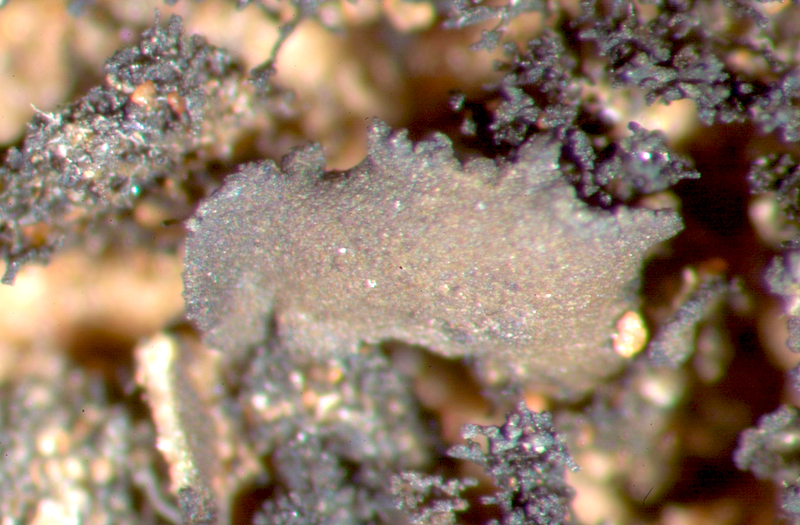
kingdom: Fungi
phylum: Ascomycota
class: Lichinomycetes
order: Lichinales
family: Lichinaceae
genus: Peccania
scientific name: Peccania
